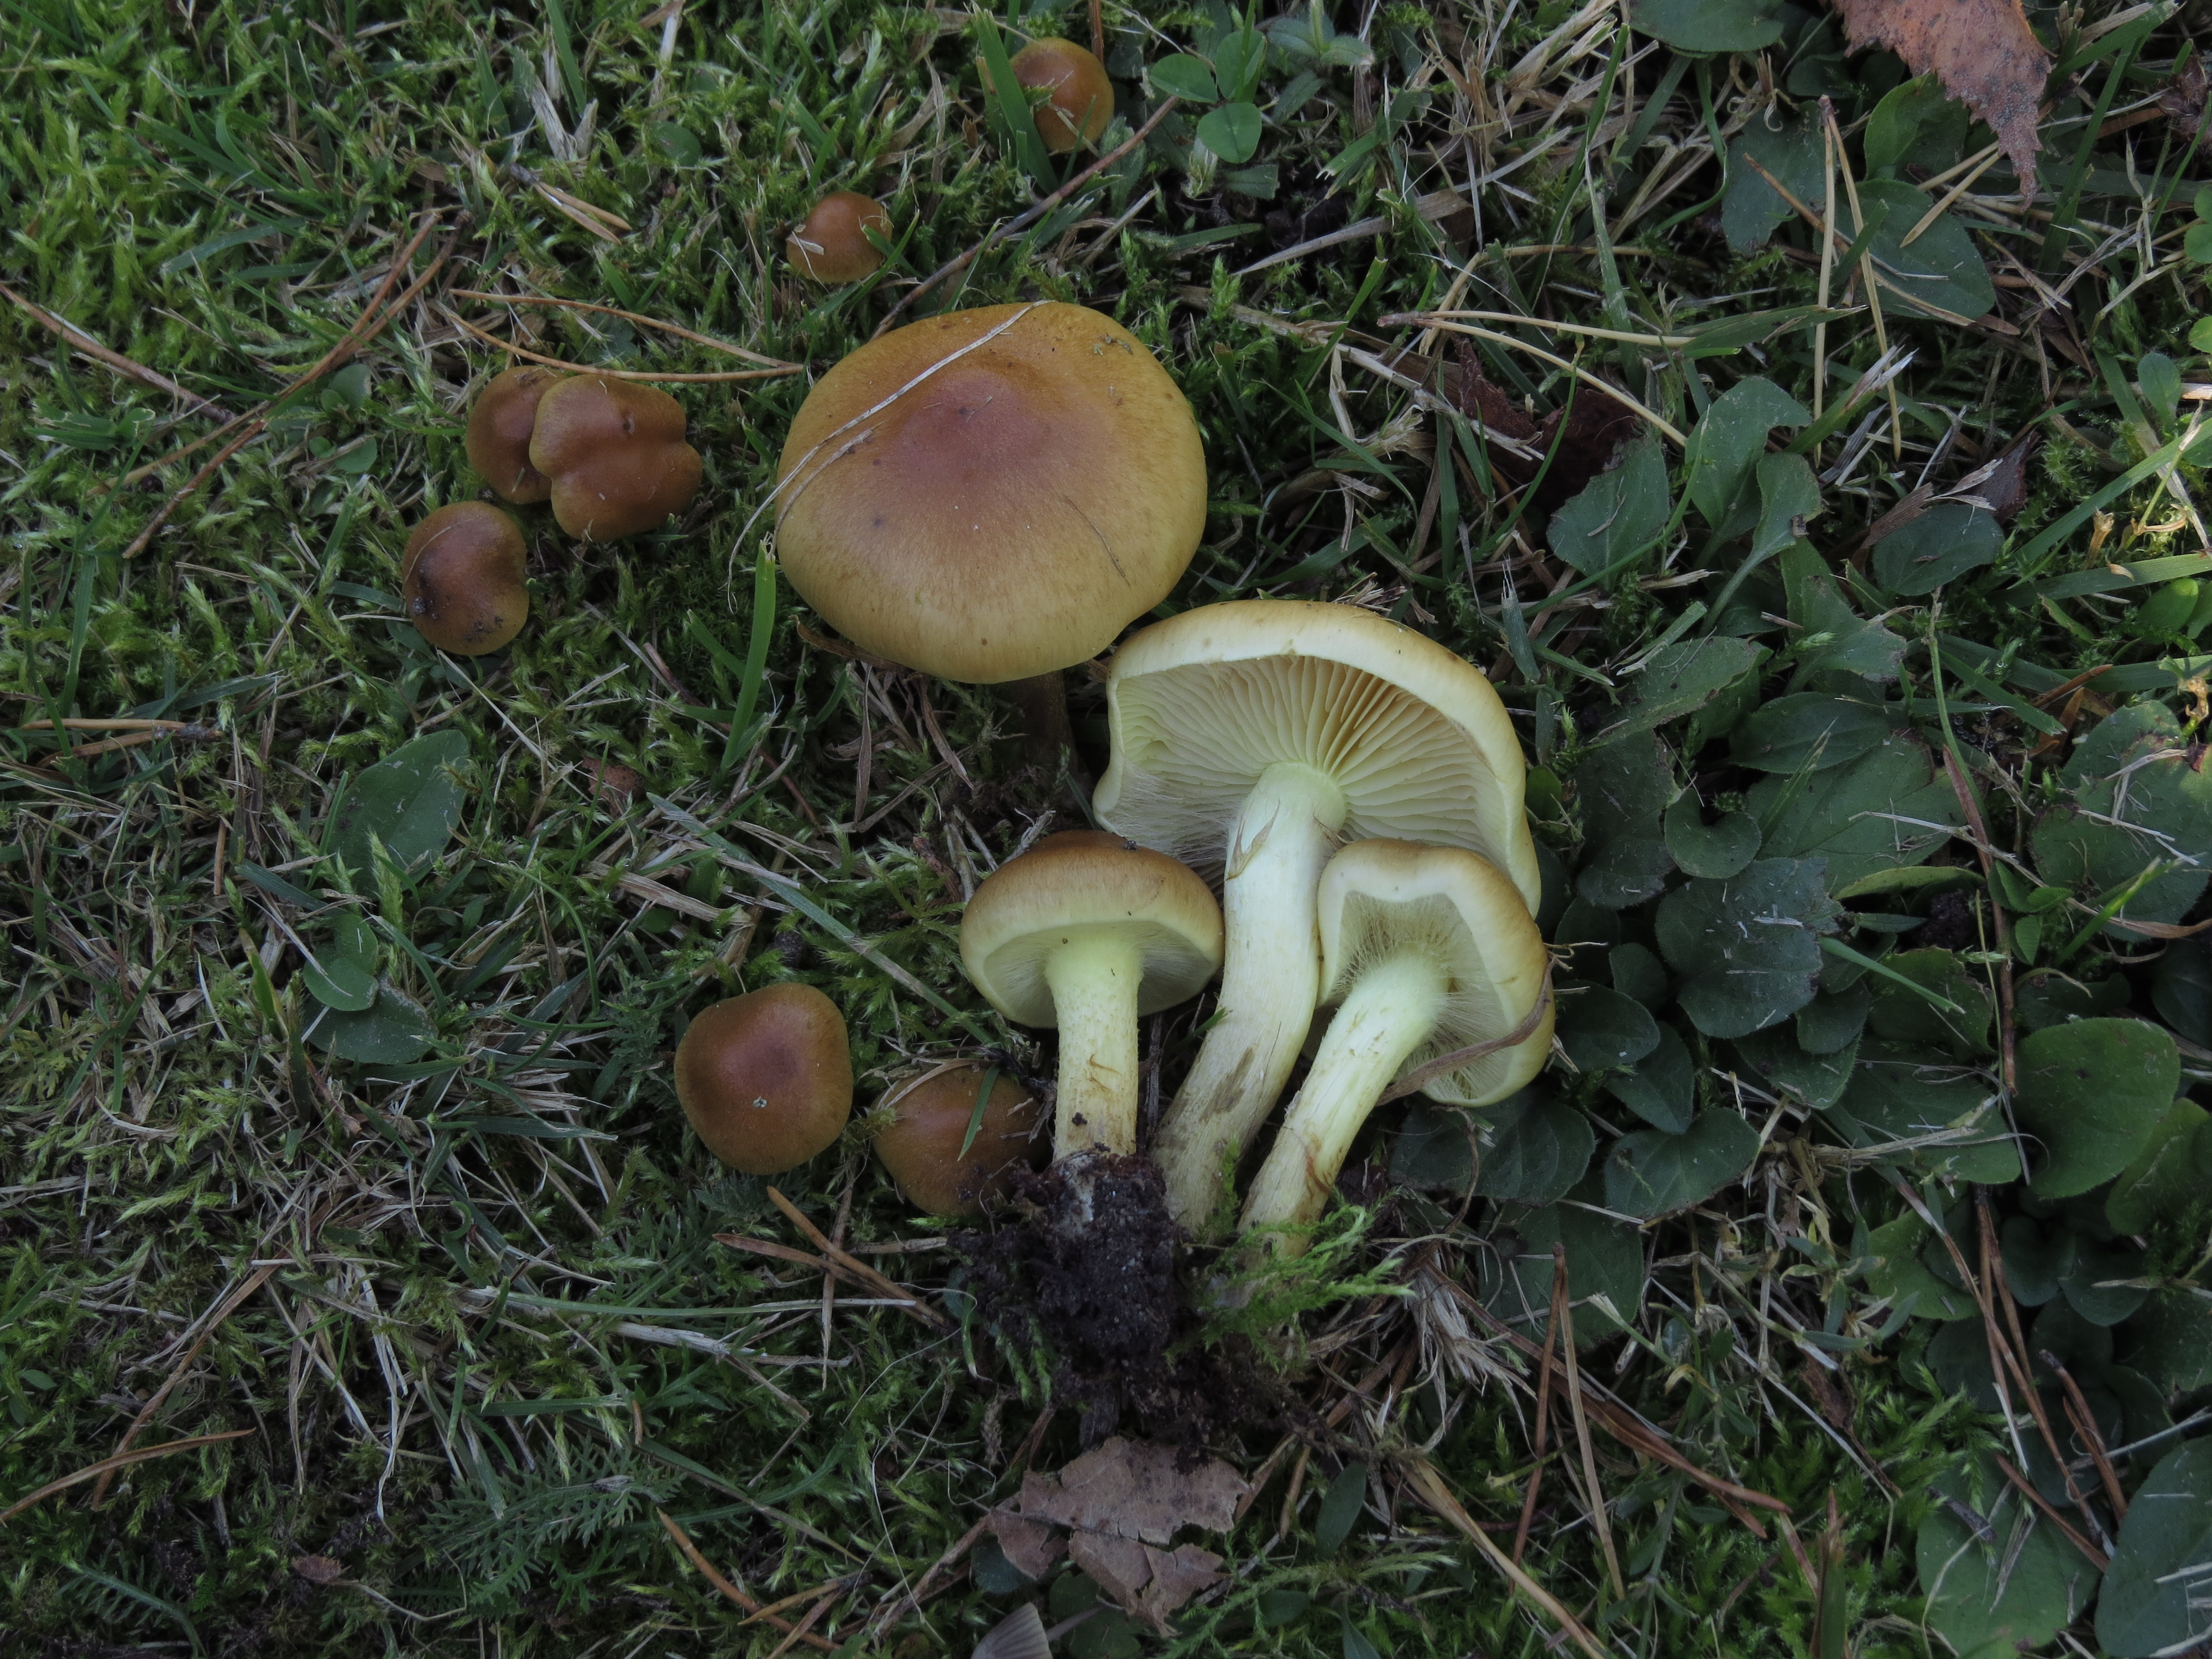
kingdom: Fungi
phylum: Basidiomycota
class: Agaricomycetes
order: Agaricales
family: Strophariaceae
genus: Pholiota
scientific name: Pholiota spumosa
